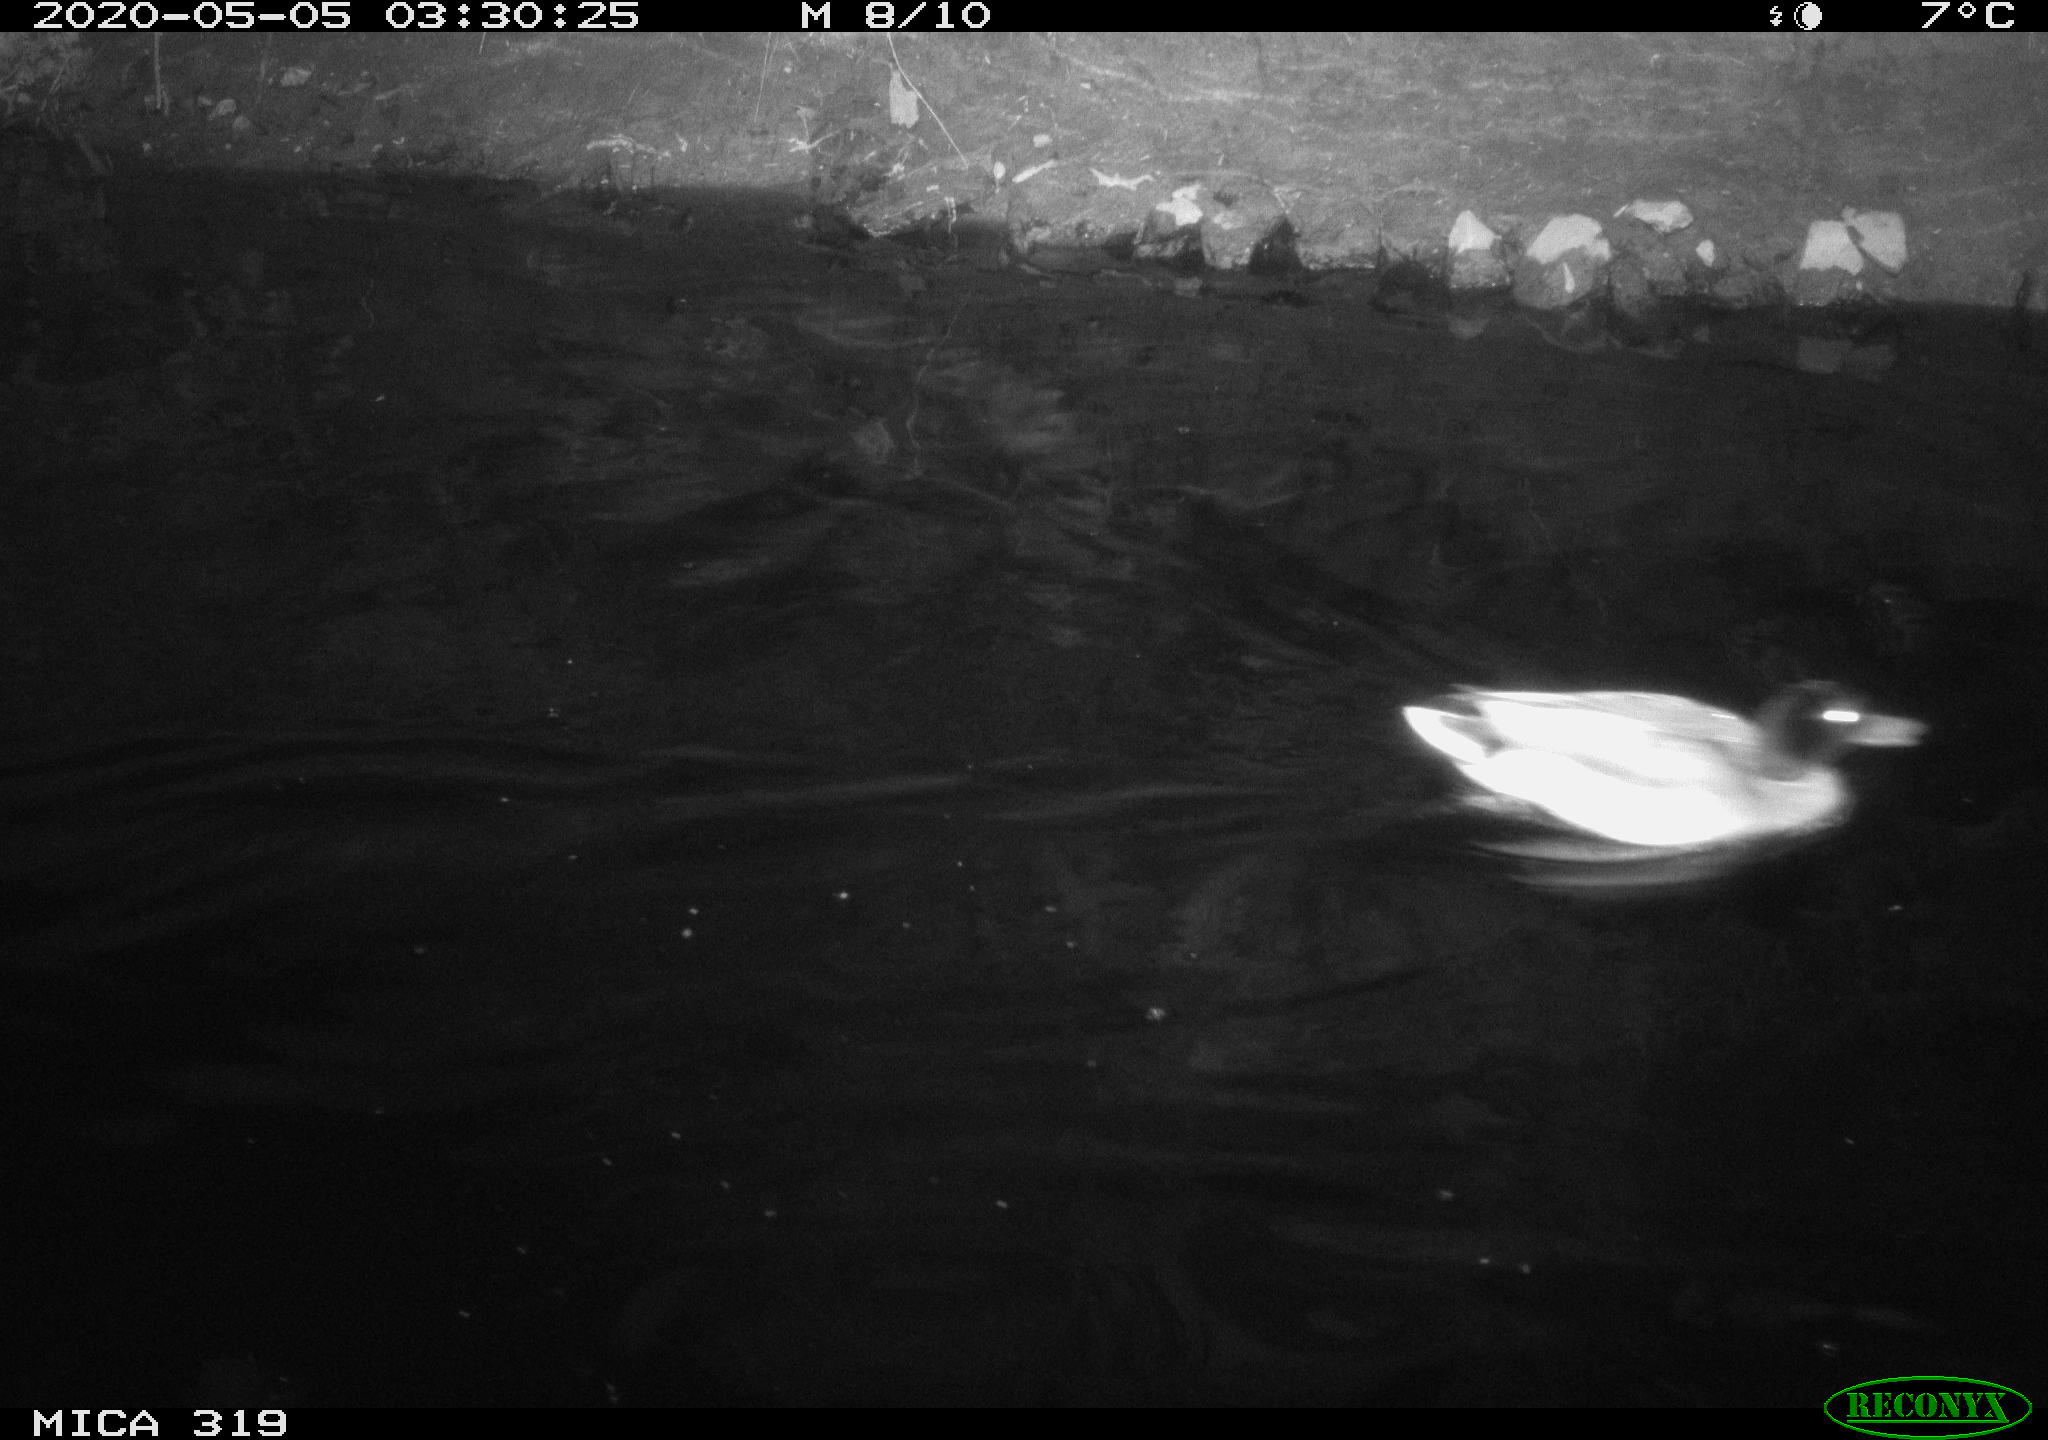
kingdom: Animalia
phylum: Chordata
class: Aves
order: Anseriformes
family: Anatidae
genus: Anas
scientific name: Anas platyrhynchos
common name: Mallard
